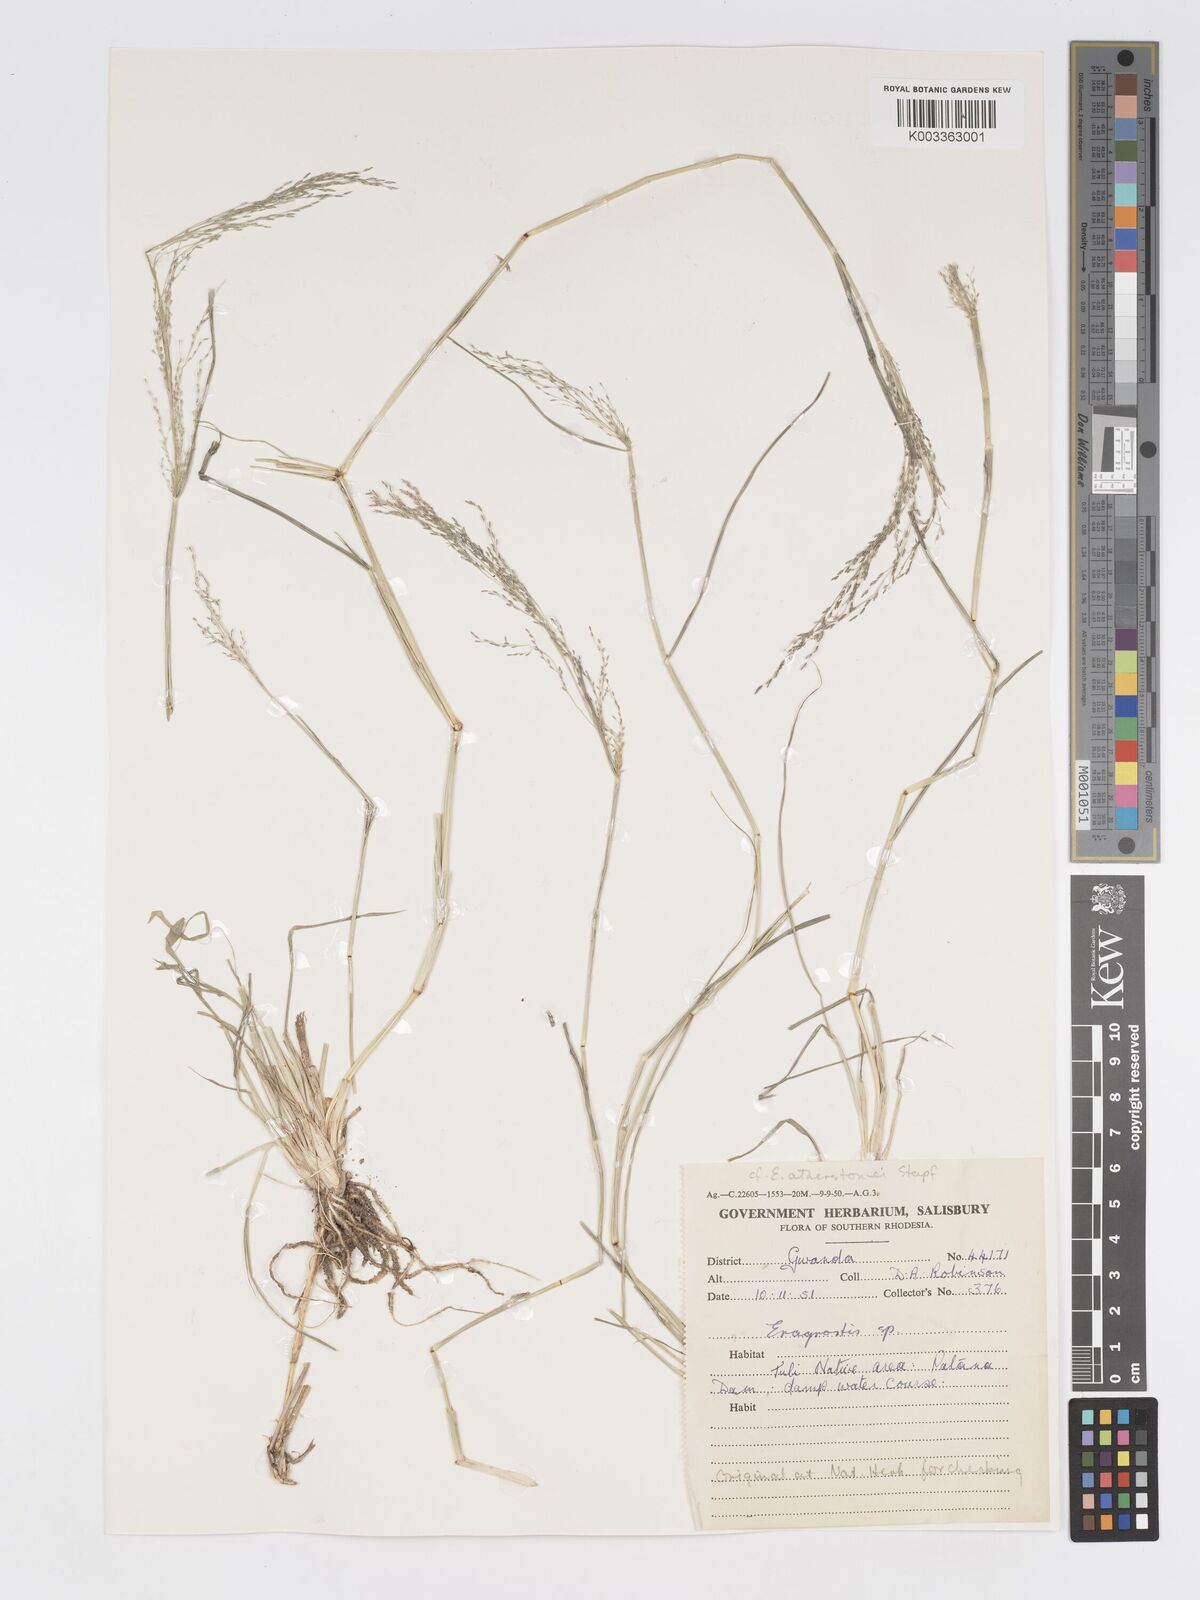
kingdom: Plantae
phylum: Tracheophyta
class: Liliopsida
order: Poales
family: Poaceae
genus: Eragrostis
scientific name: Eragrostis cylindriflora
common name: Cylinderflower lovegrass
